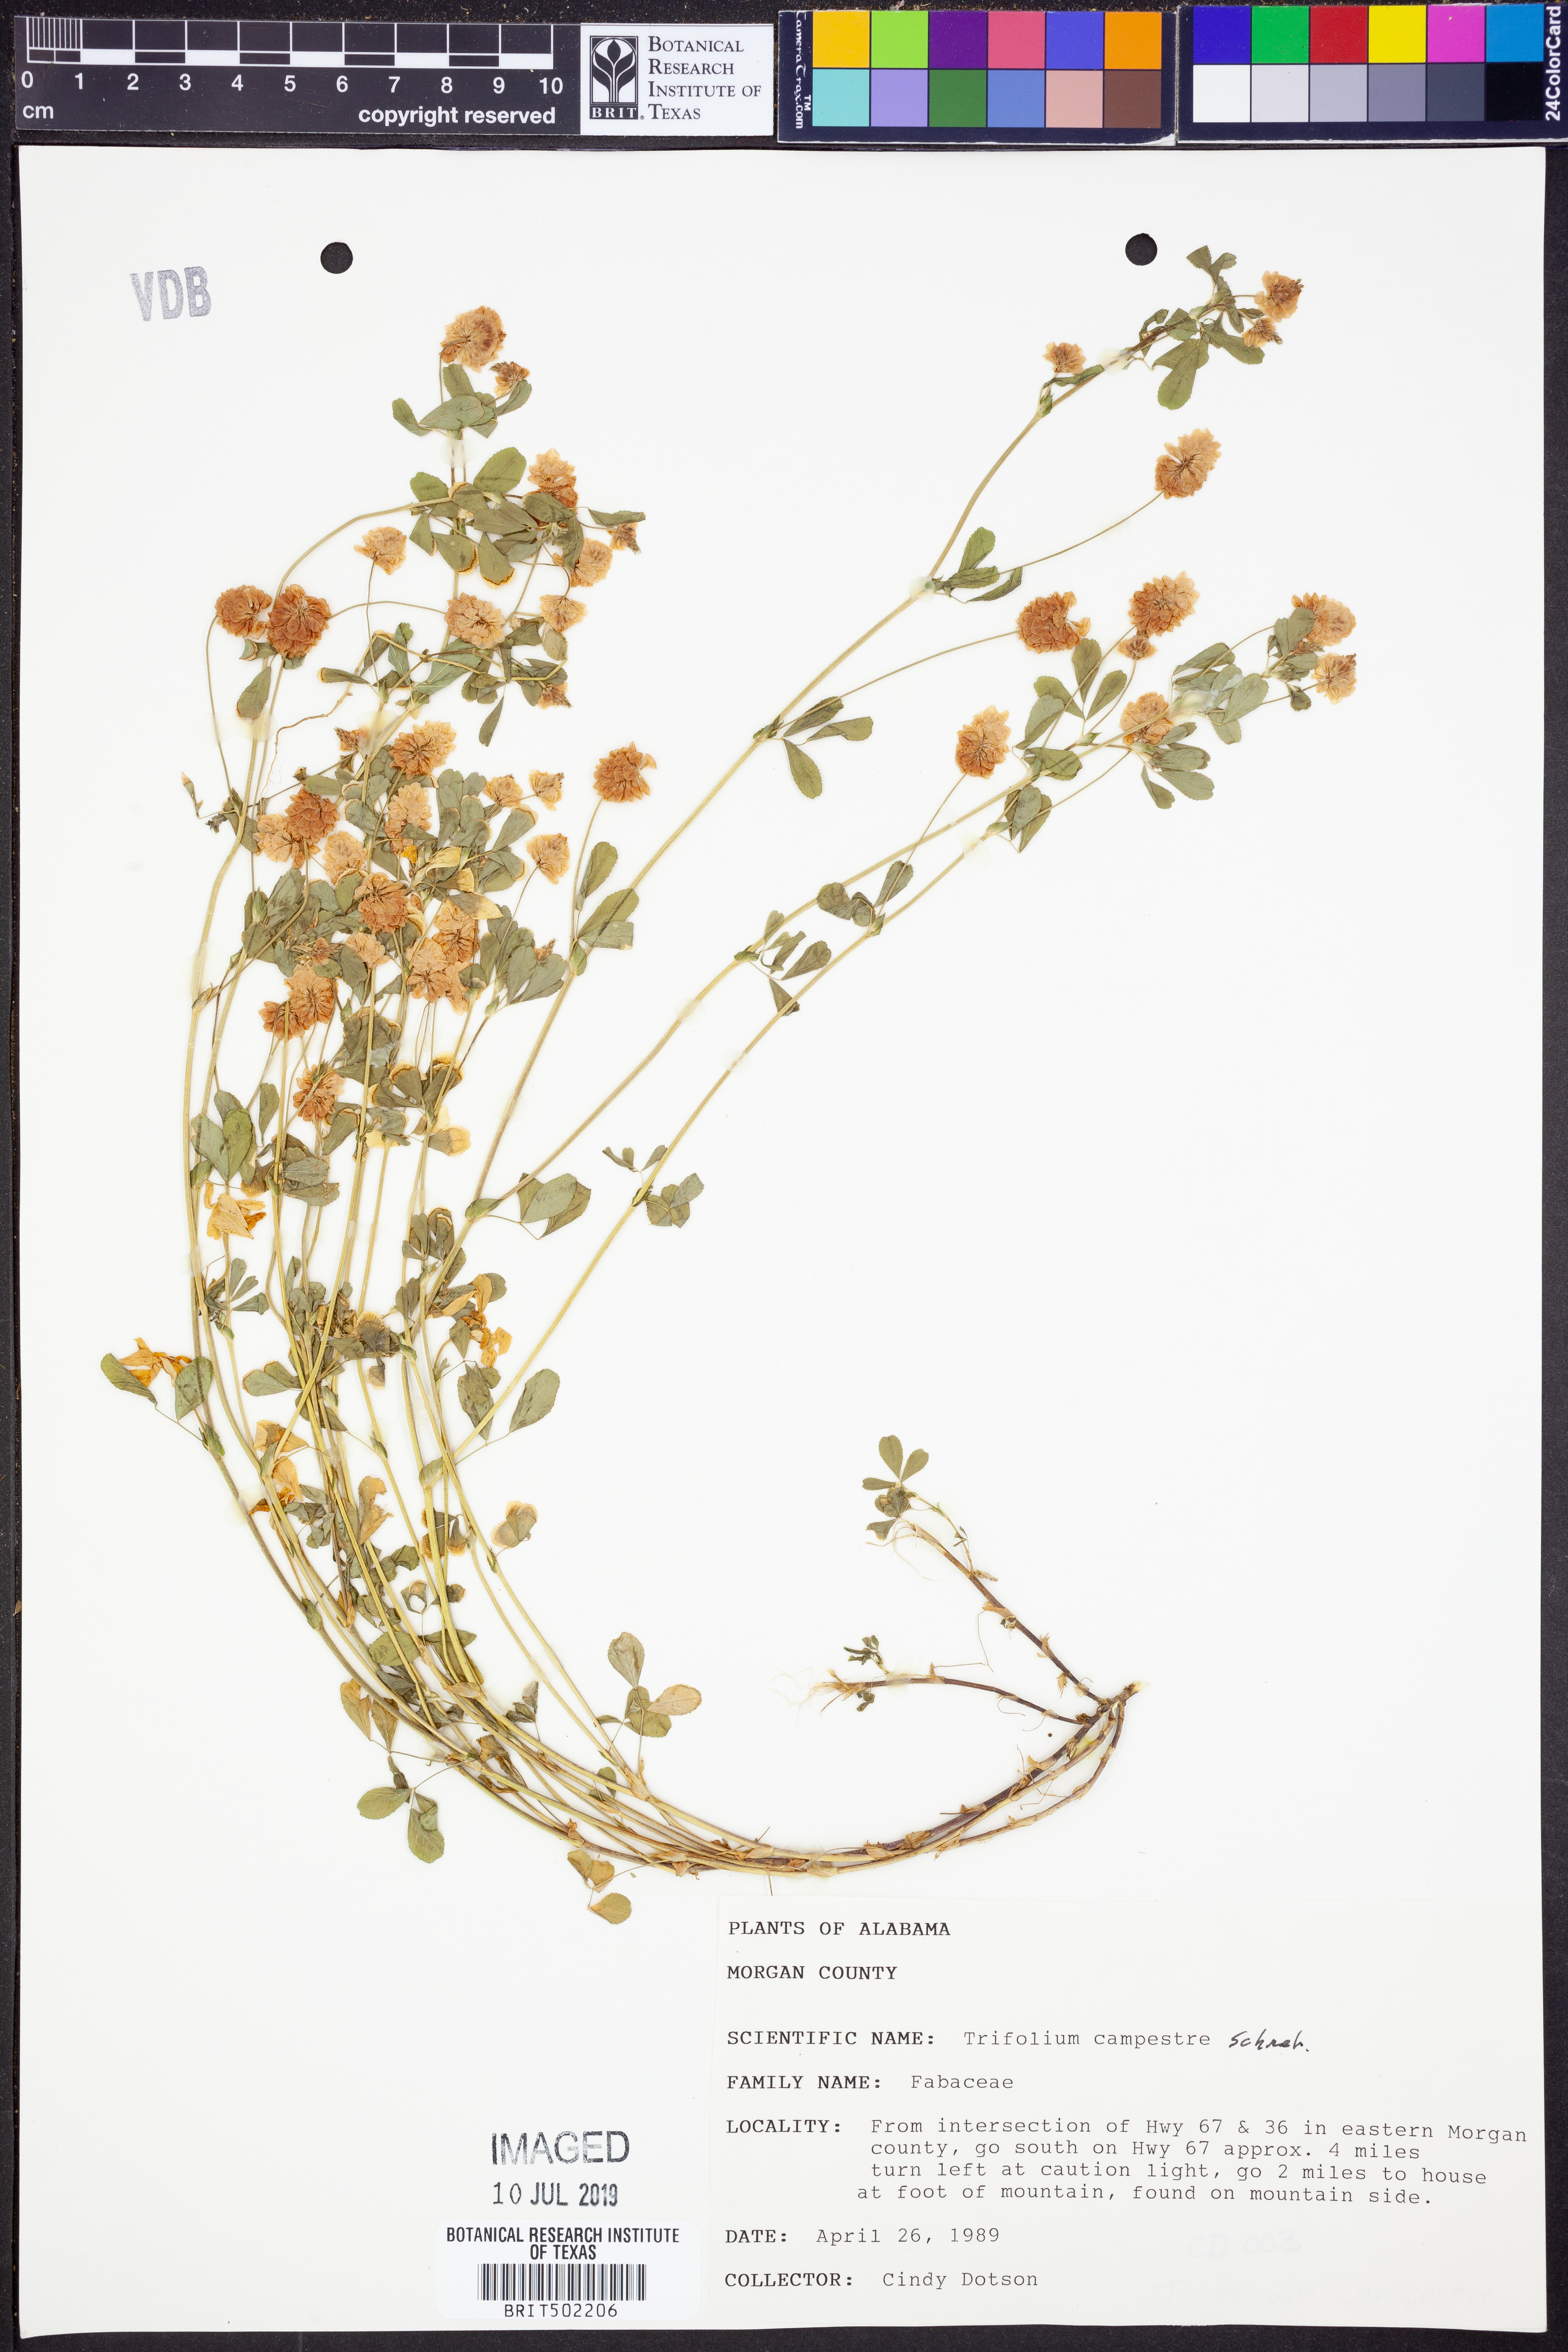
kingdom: Plantae
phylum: Tracheophyta
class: Magnoliopsida
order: Fabales
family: Fabaceae
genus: Trifolium
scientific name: Trifolium campestre
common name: Field clover
